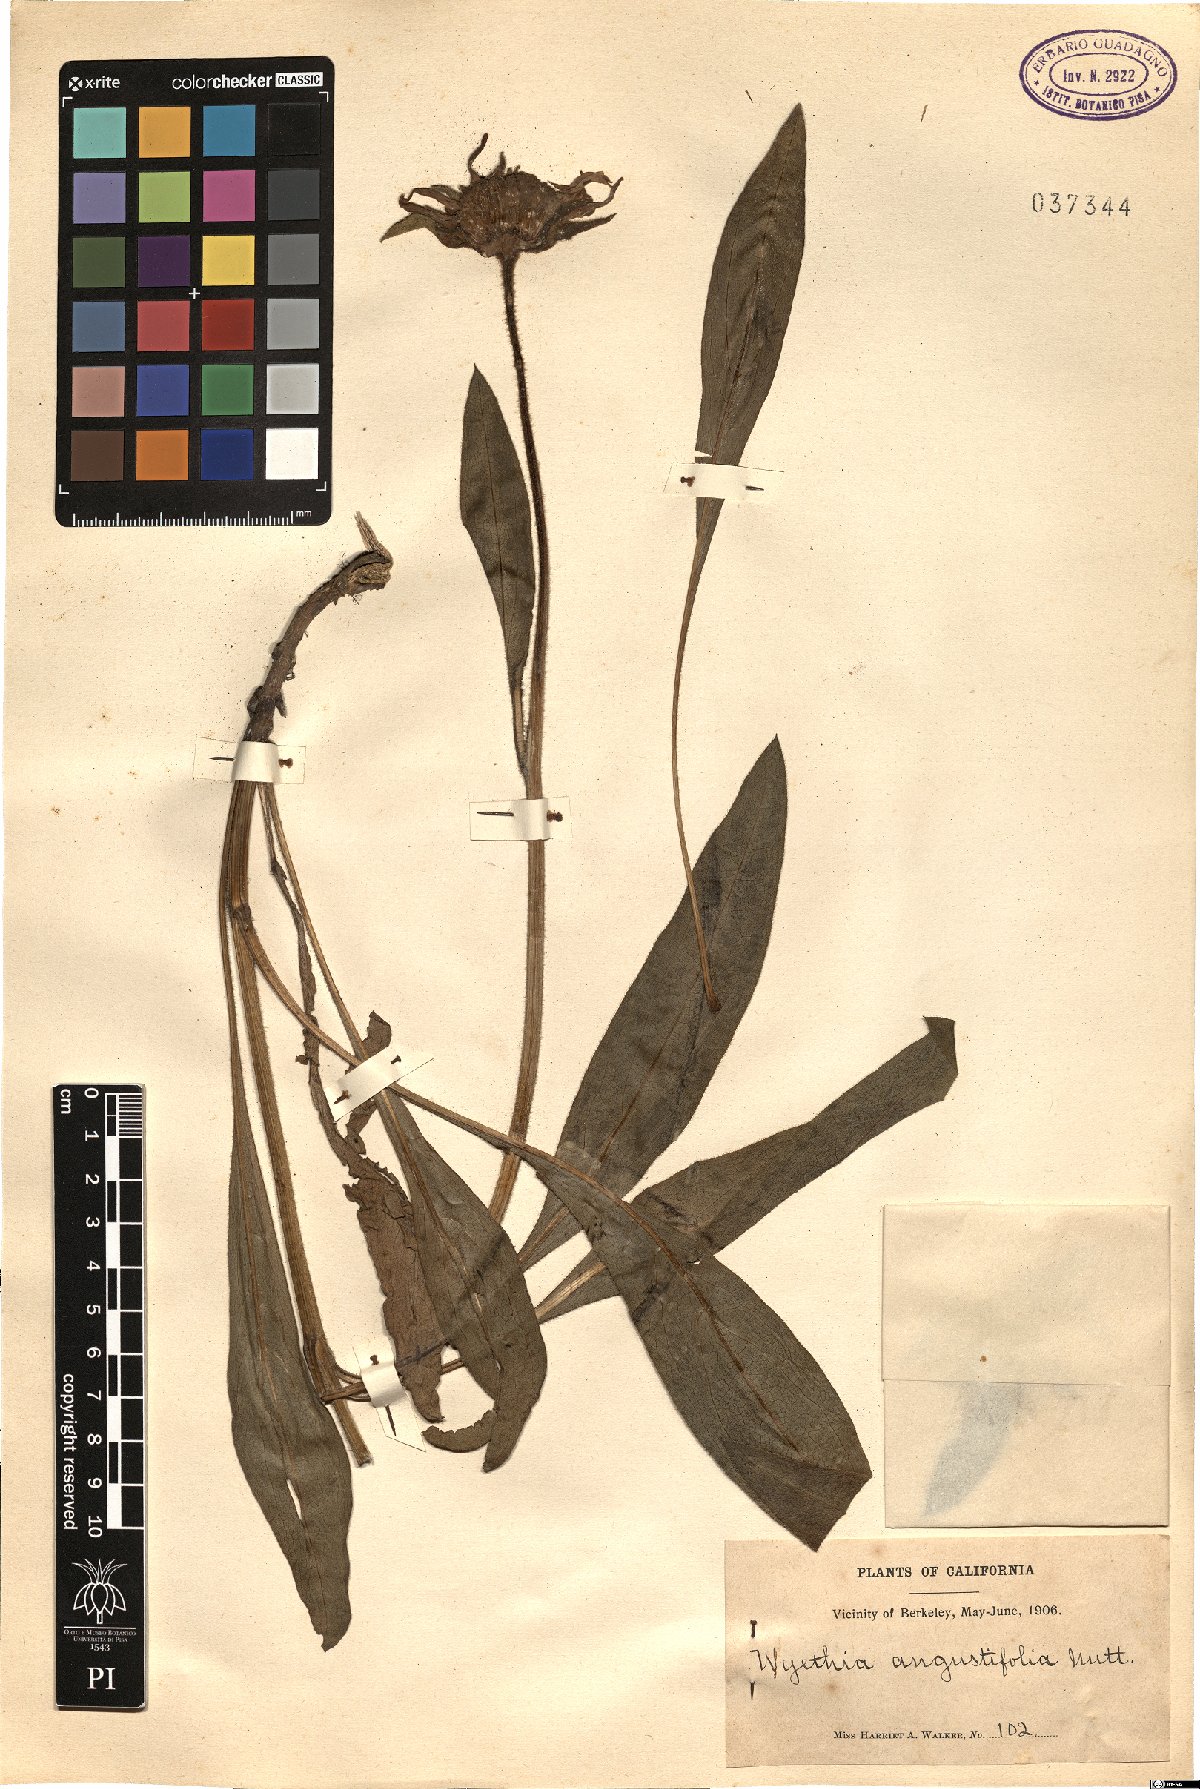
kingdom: Plantae
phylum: Tracheophyta
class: Magnoliopsida
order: Asterales
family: Asteraceae
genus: Wyethia
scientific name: Wyethia angustifolia
